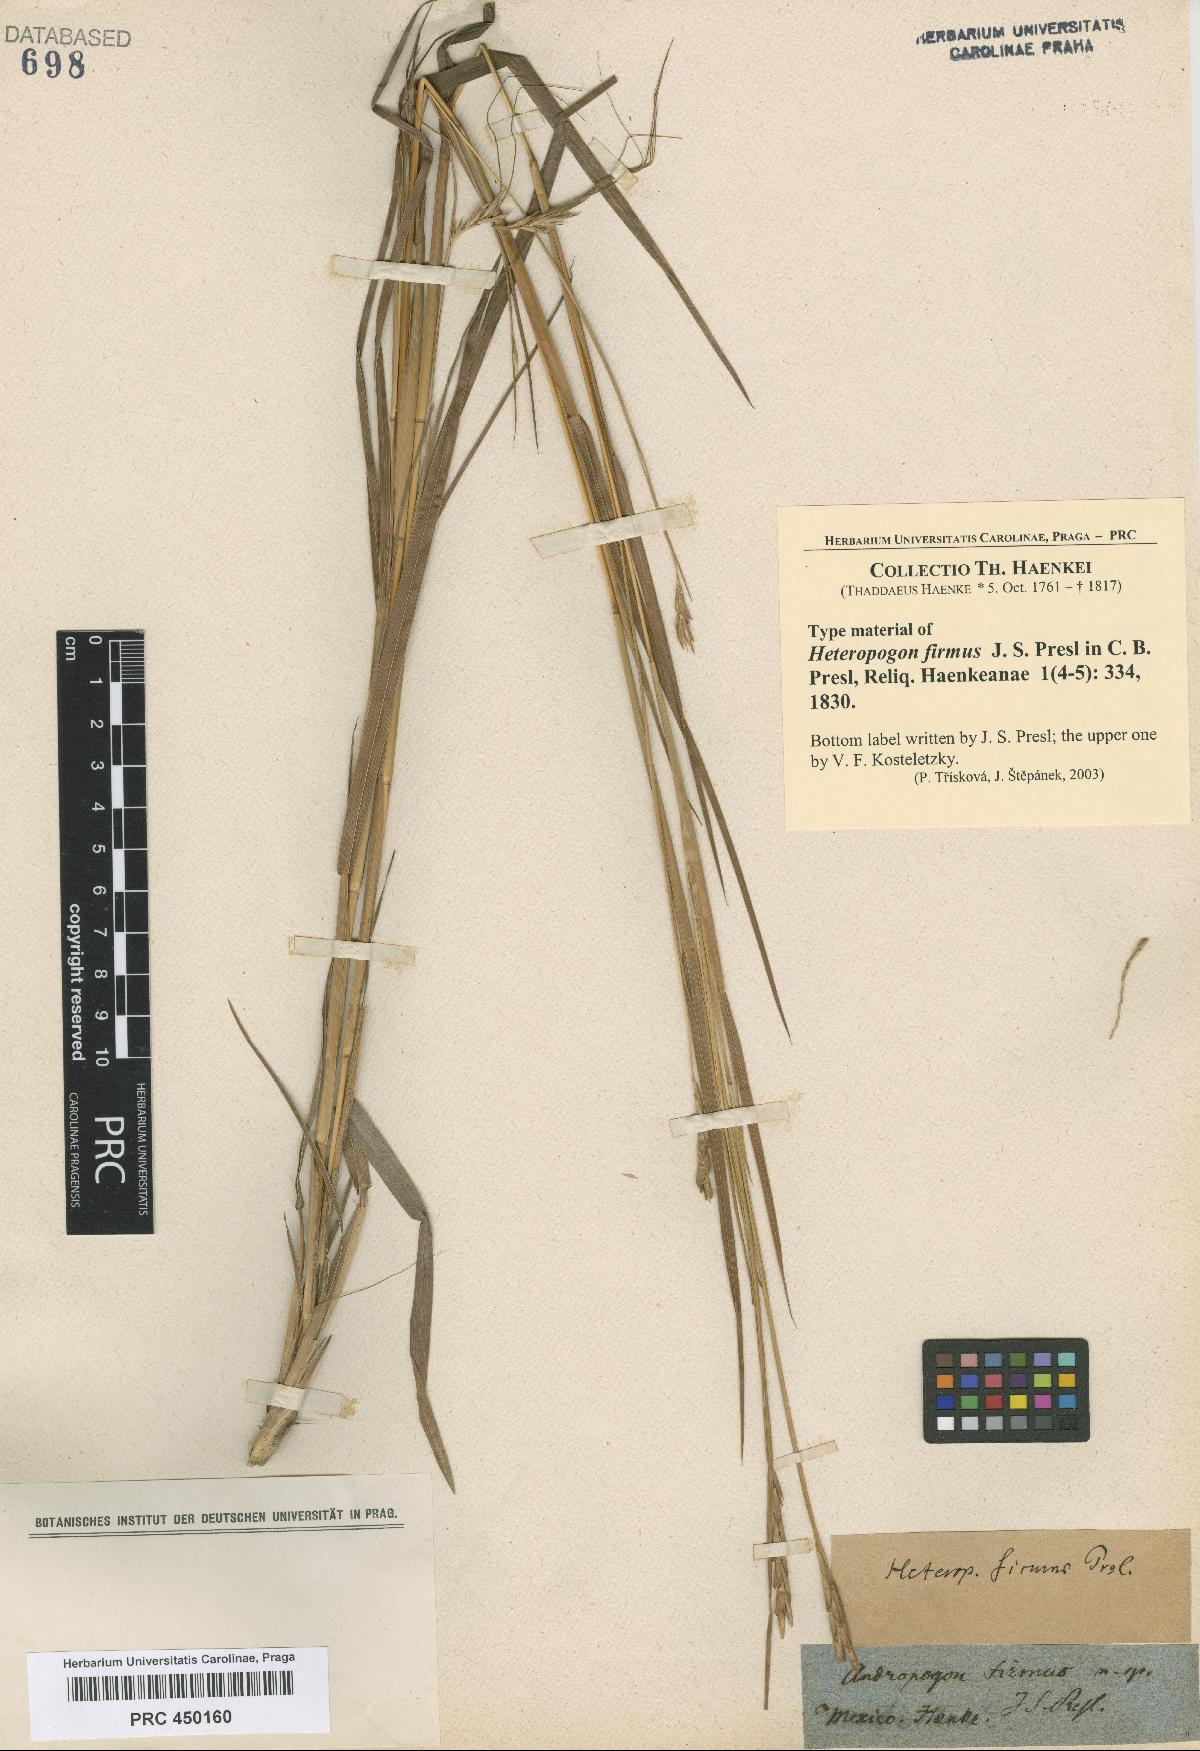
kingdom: Plantae
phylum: Tracheophyta
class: Liliopsida
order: Poales
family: Poaceae
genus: Heteropogon
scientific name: Heteropogon contortus
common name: Tanglehead
